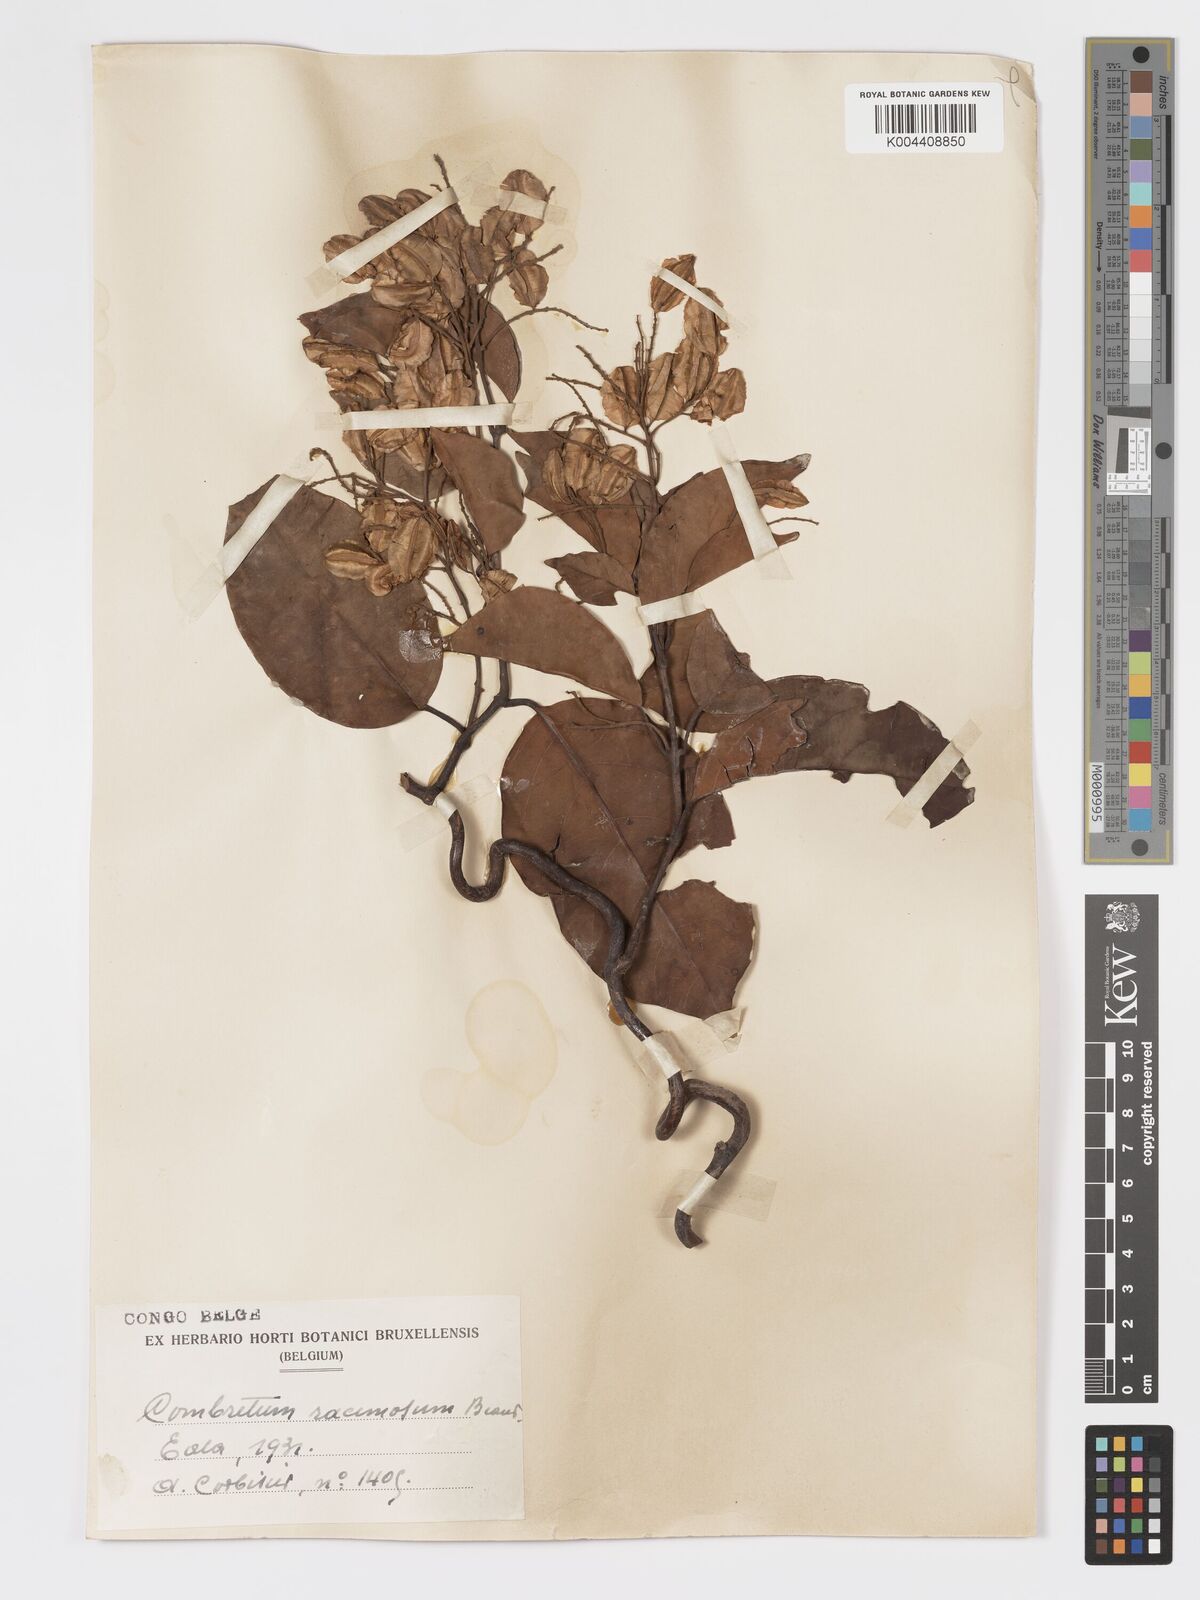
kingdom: Plantae
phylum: Tracheophyta
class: Magnoliopsida
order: Myrtales
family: Combretaceae
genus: Combretum
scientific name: Combretum racemosum
